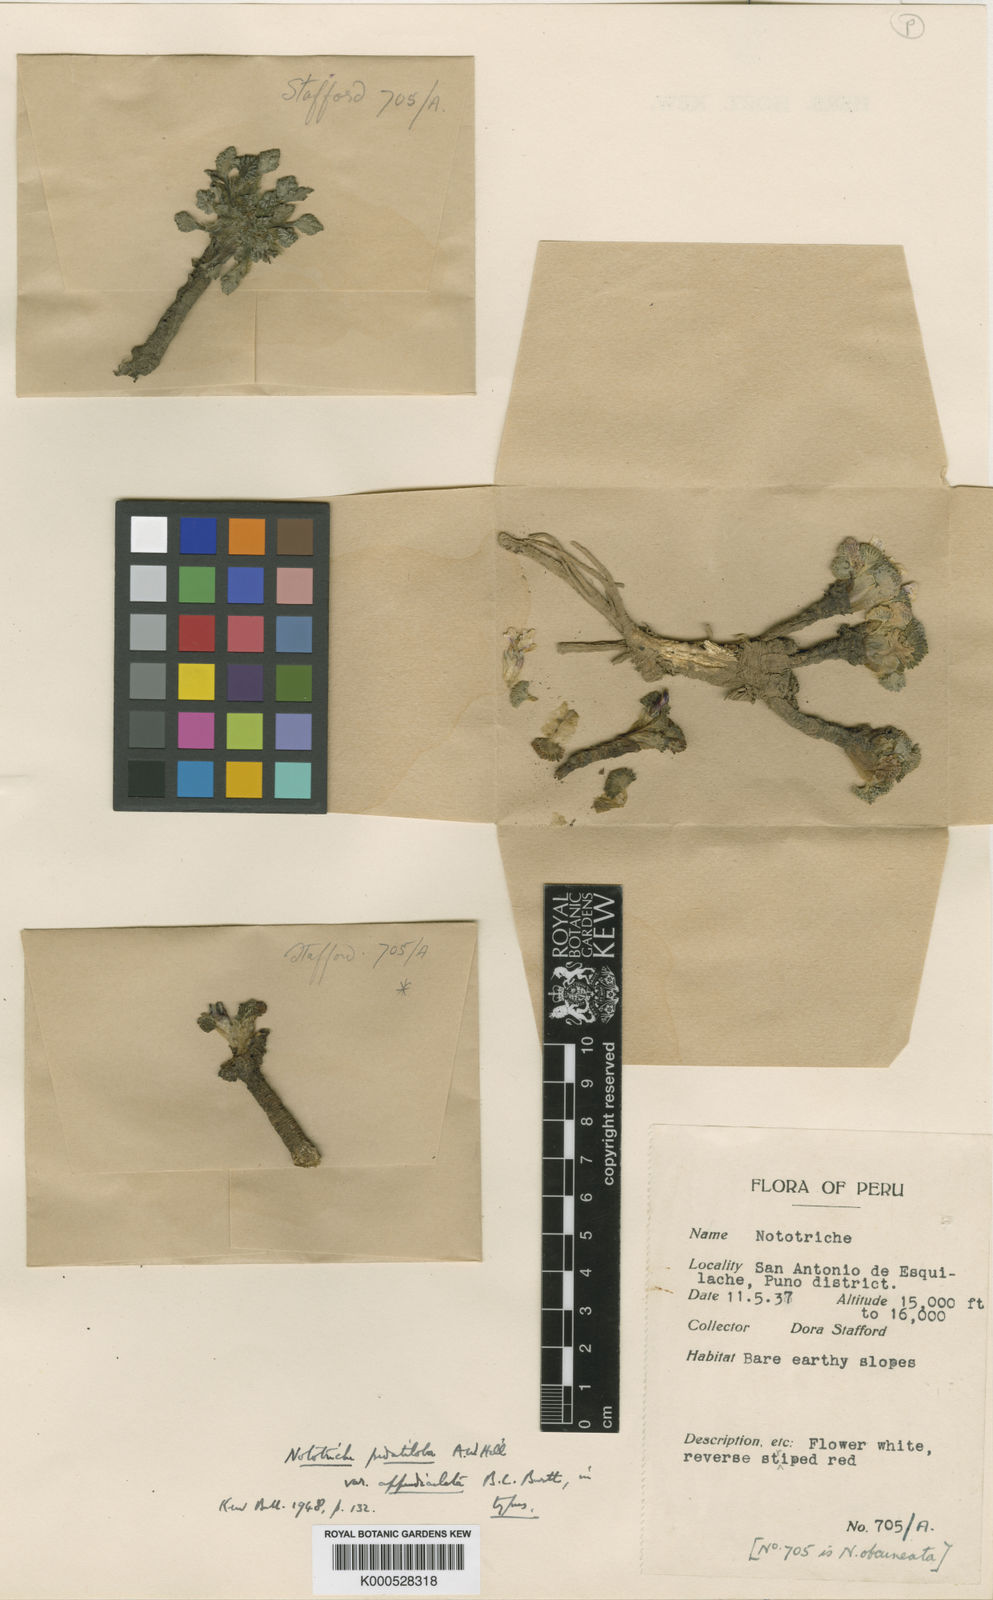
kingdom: Plantae
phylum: Tracheophyta
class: Magnoliopsida
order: Malvales
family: Malvaceae
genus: Nototriche
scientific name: Nototriche pedatiloba
